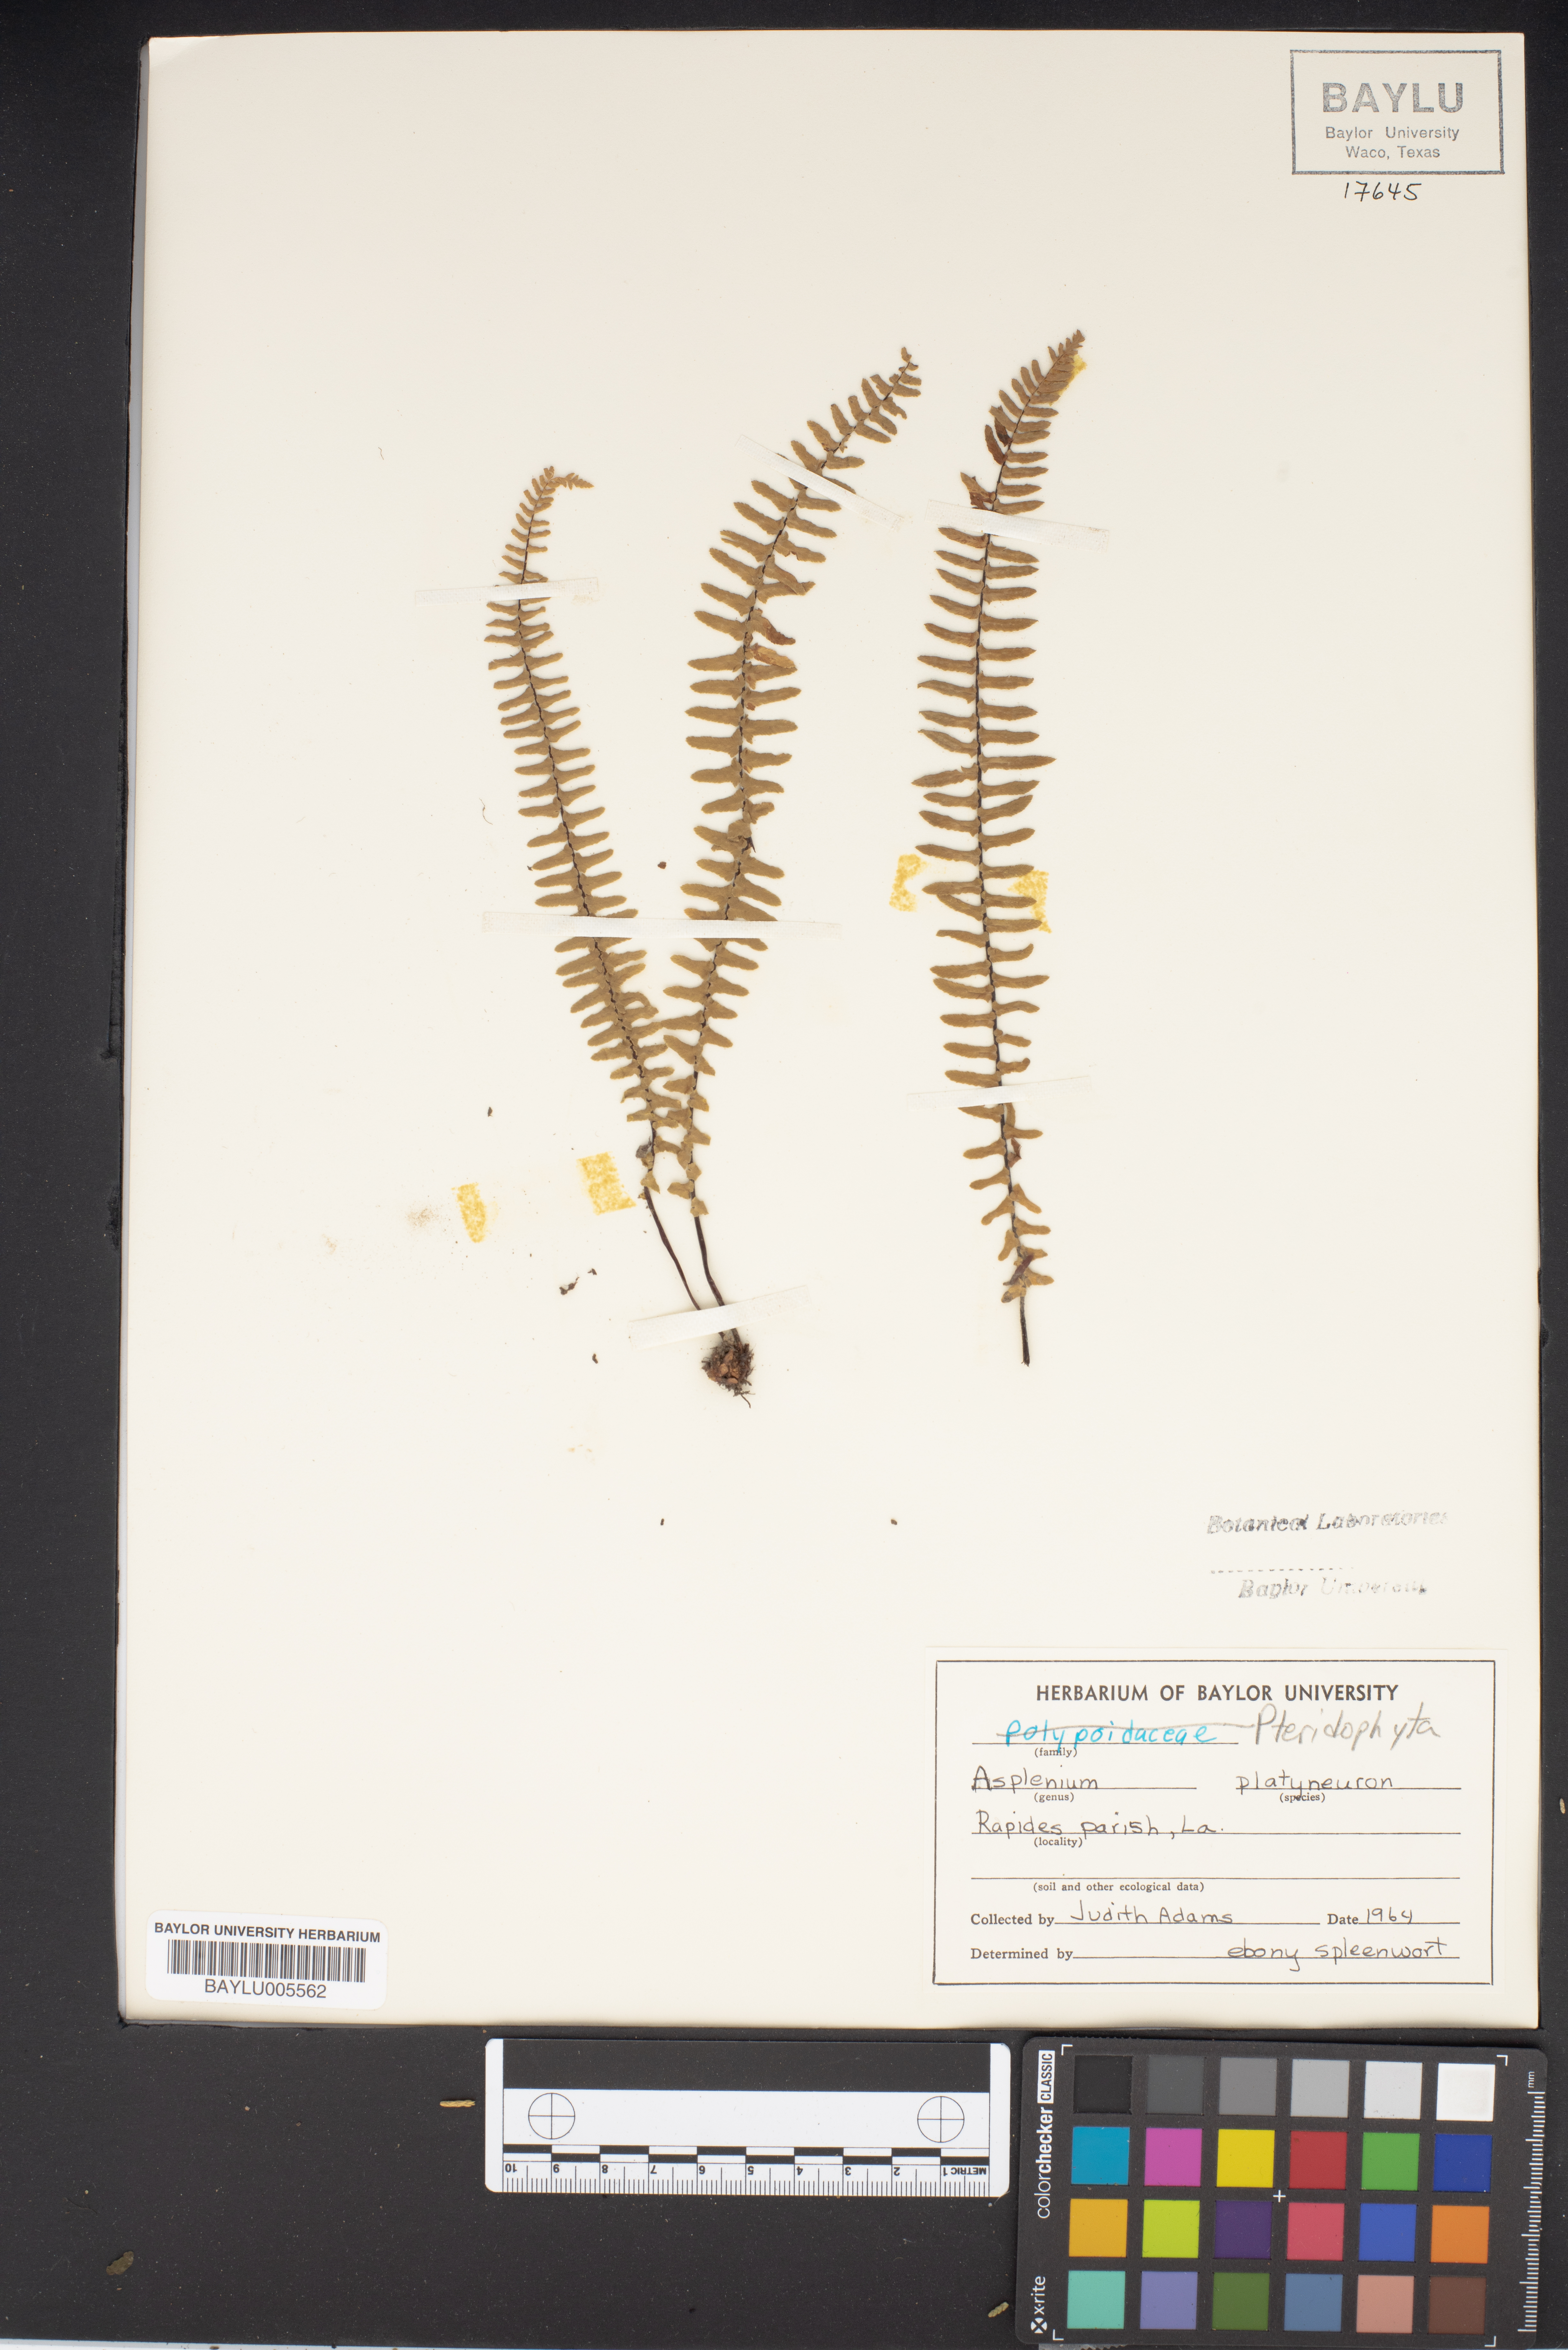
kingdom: Plantae
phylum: Tracheophyta
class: Polypodiopsida
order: Polypodiales
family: Aspleniaceae
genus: Asplenium
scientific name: Asplenium platyneuron
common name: Ebony spleenwort
